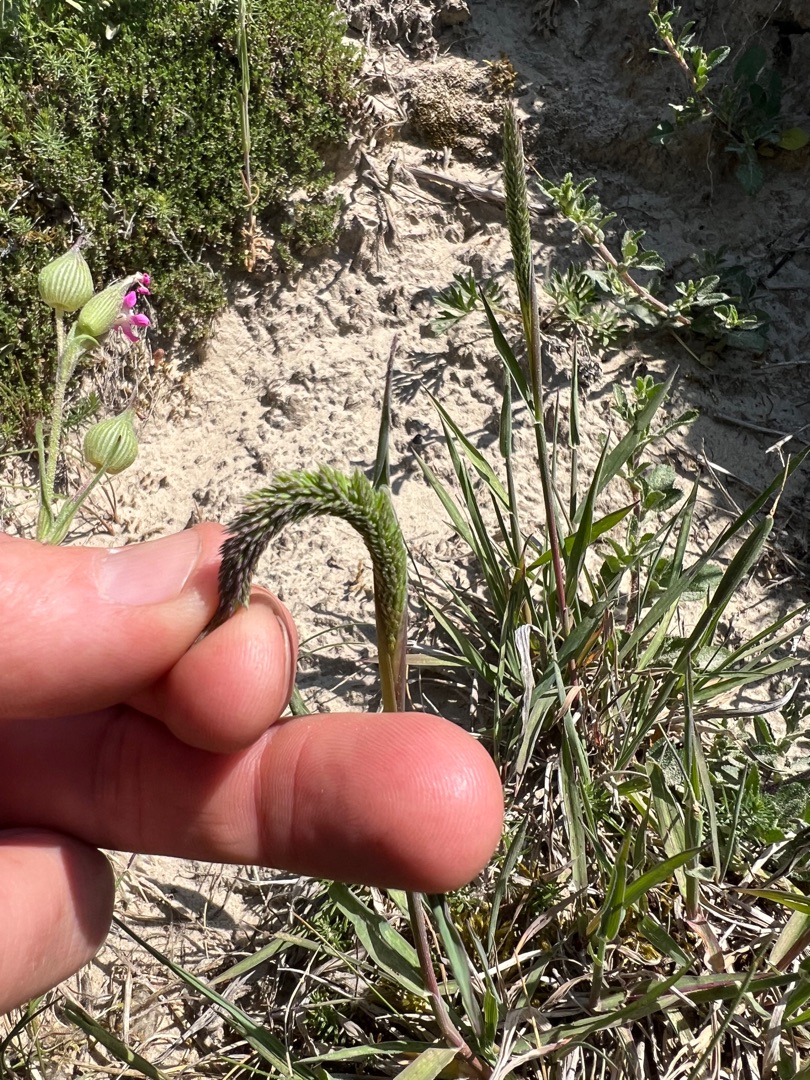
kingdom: Plantae
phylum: Tracheophyta
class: Liliopsida
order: Poales
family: Poaceae
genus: Phleum
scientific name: Phleum phleoides
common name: Glat rottehale
